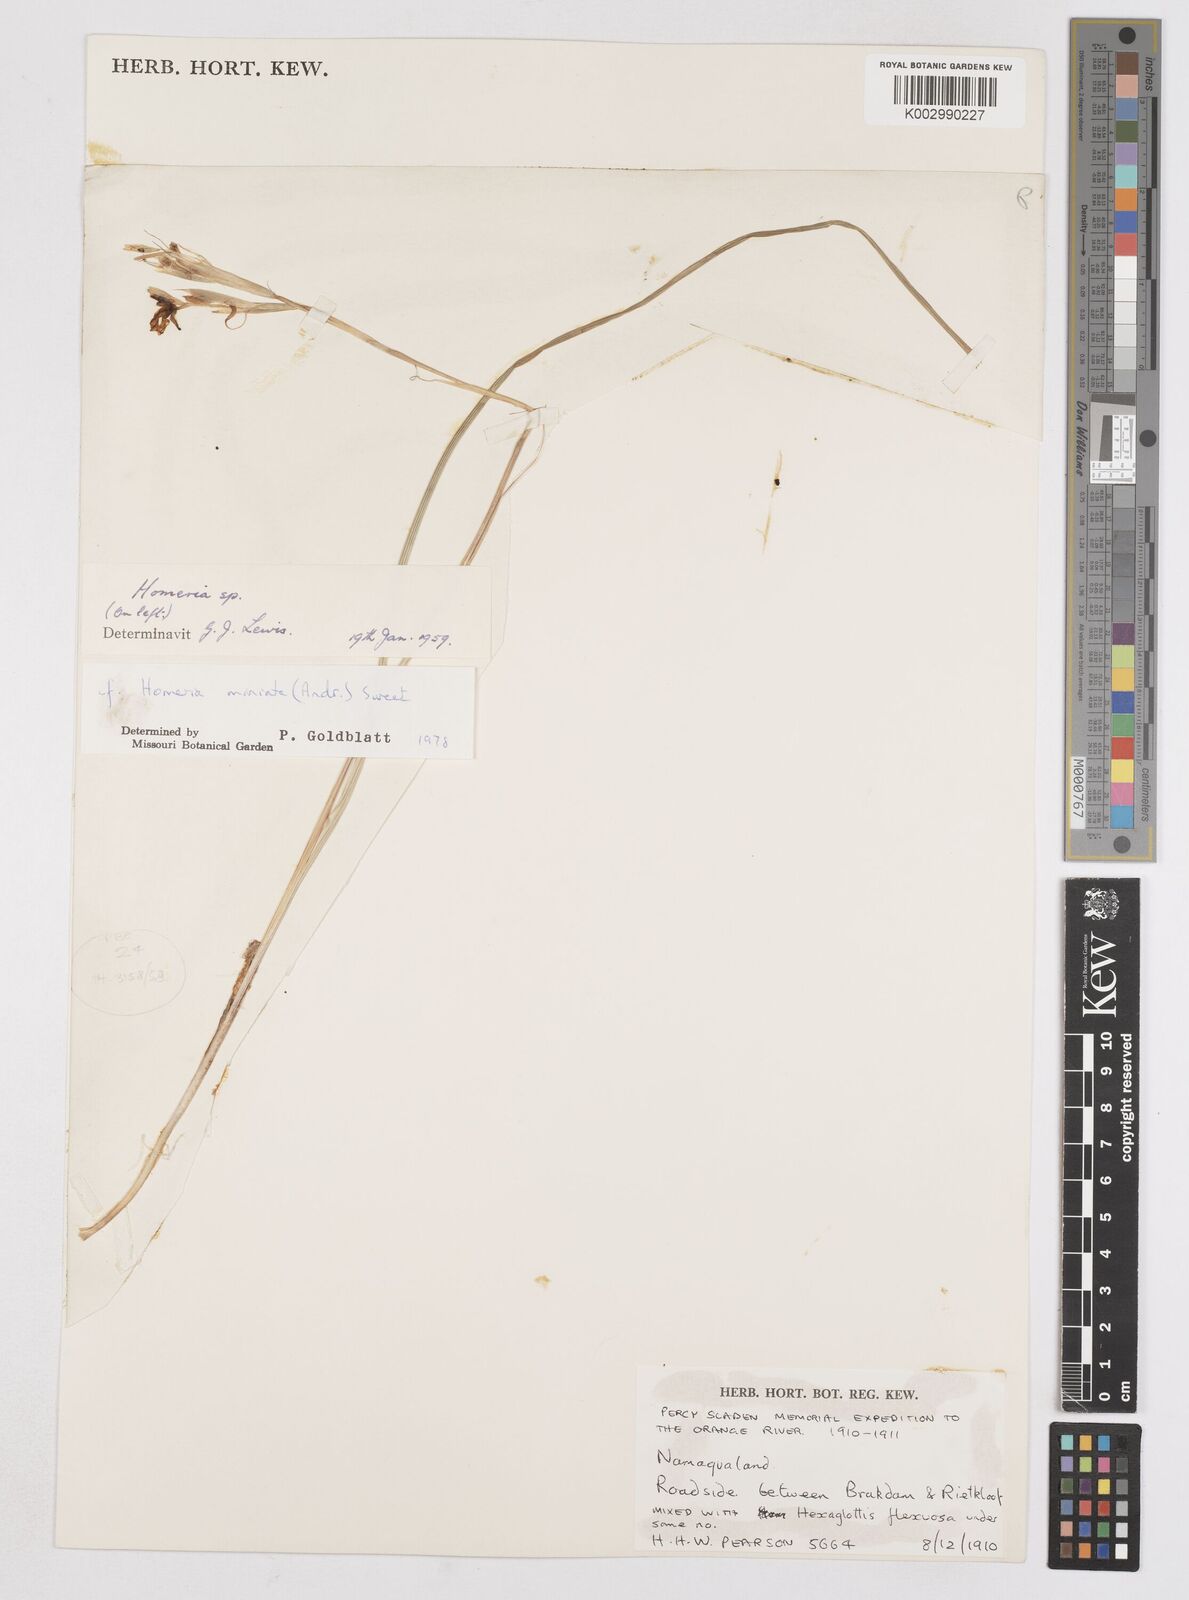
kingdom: Plantae
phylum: Tracheophyta
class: Liliopsida
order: Asparagales
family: Iridaceae
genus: Moraea
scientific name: Moraea miniata
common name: Two-leaf cape-tulip
